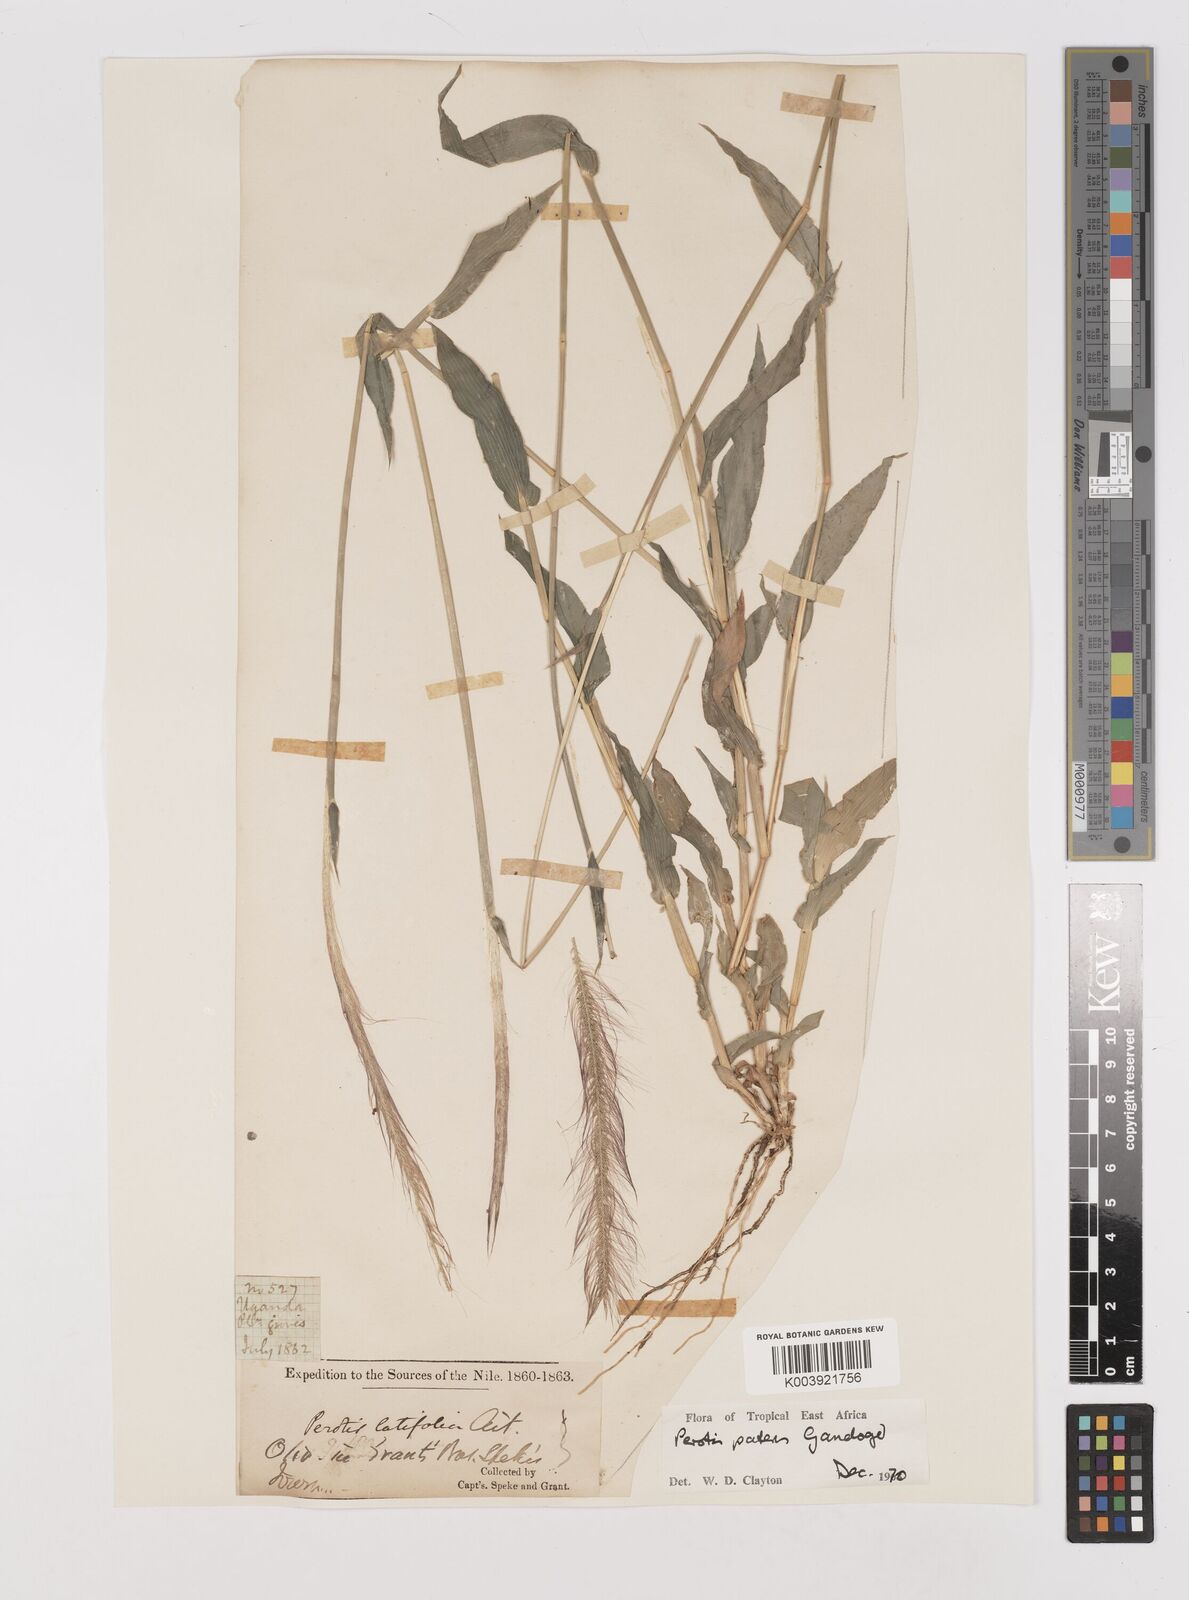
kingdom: Plantae
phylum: Tracheophyta
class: Liliopsida
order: Poales
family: Poaceae
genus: Perotis
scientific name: Perotis patens
